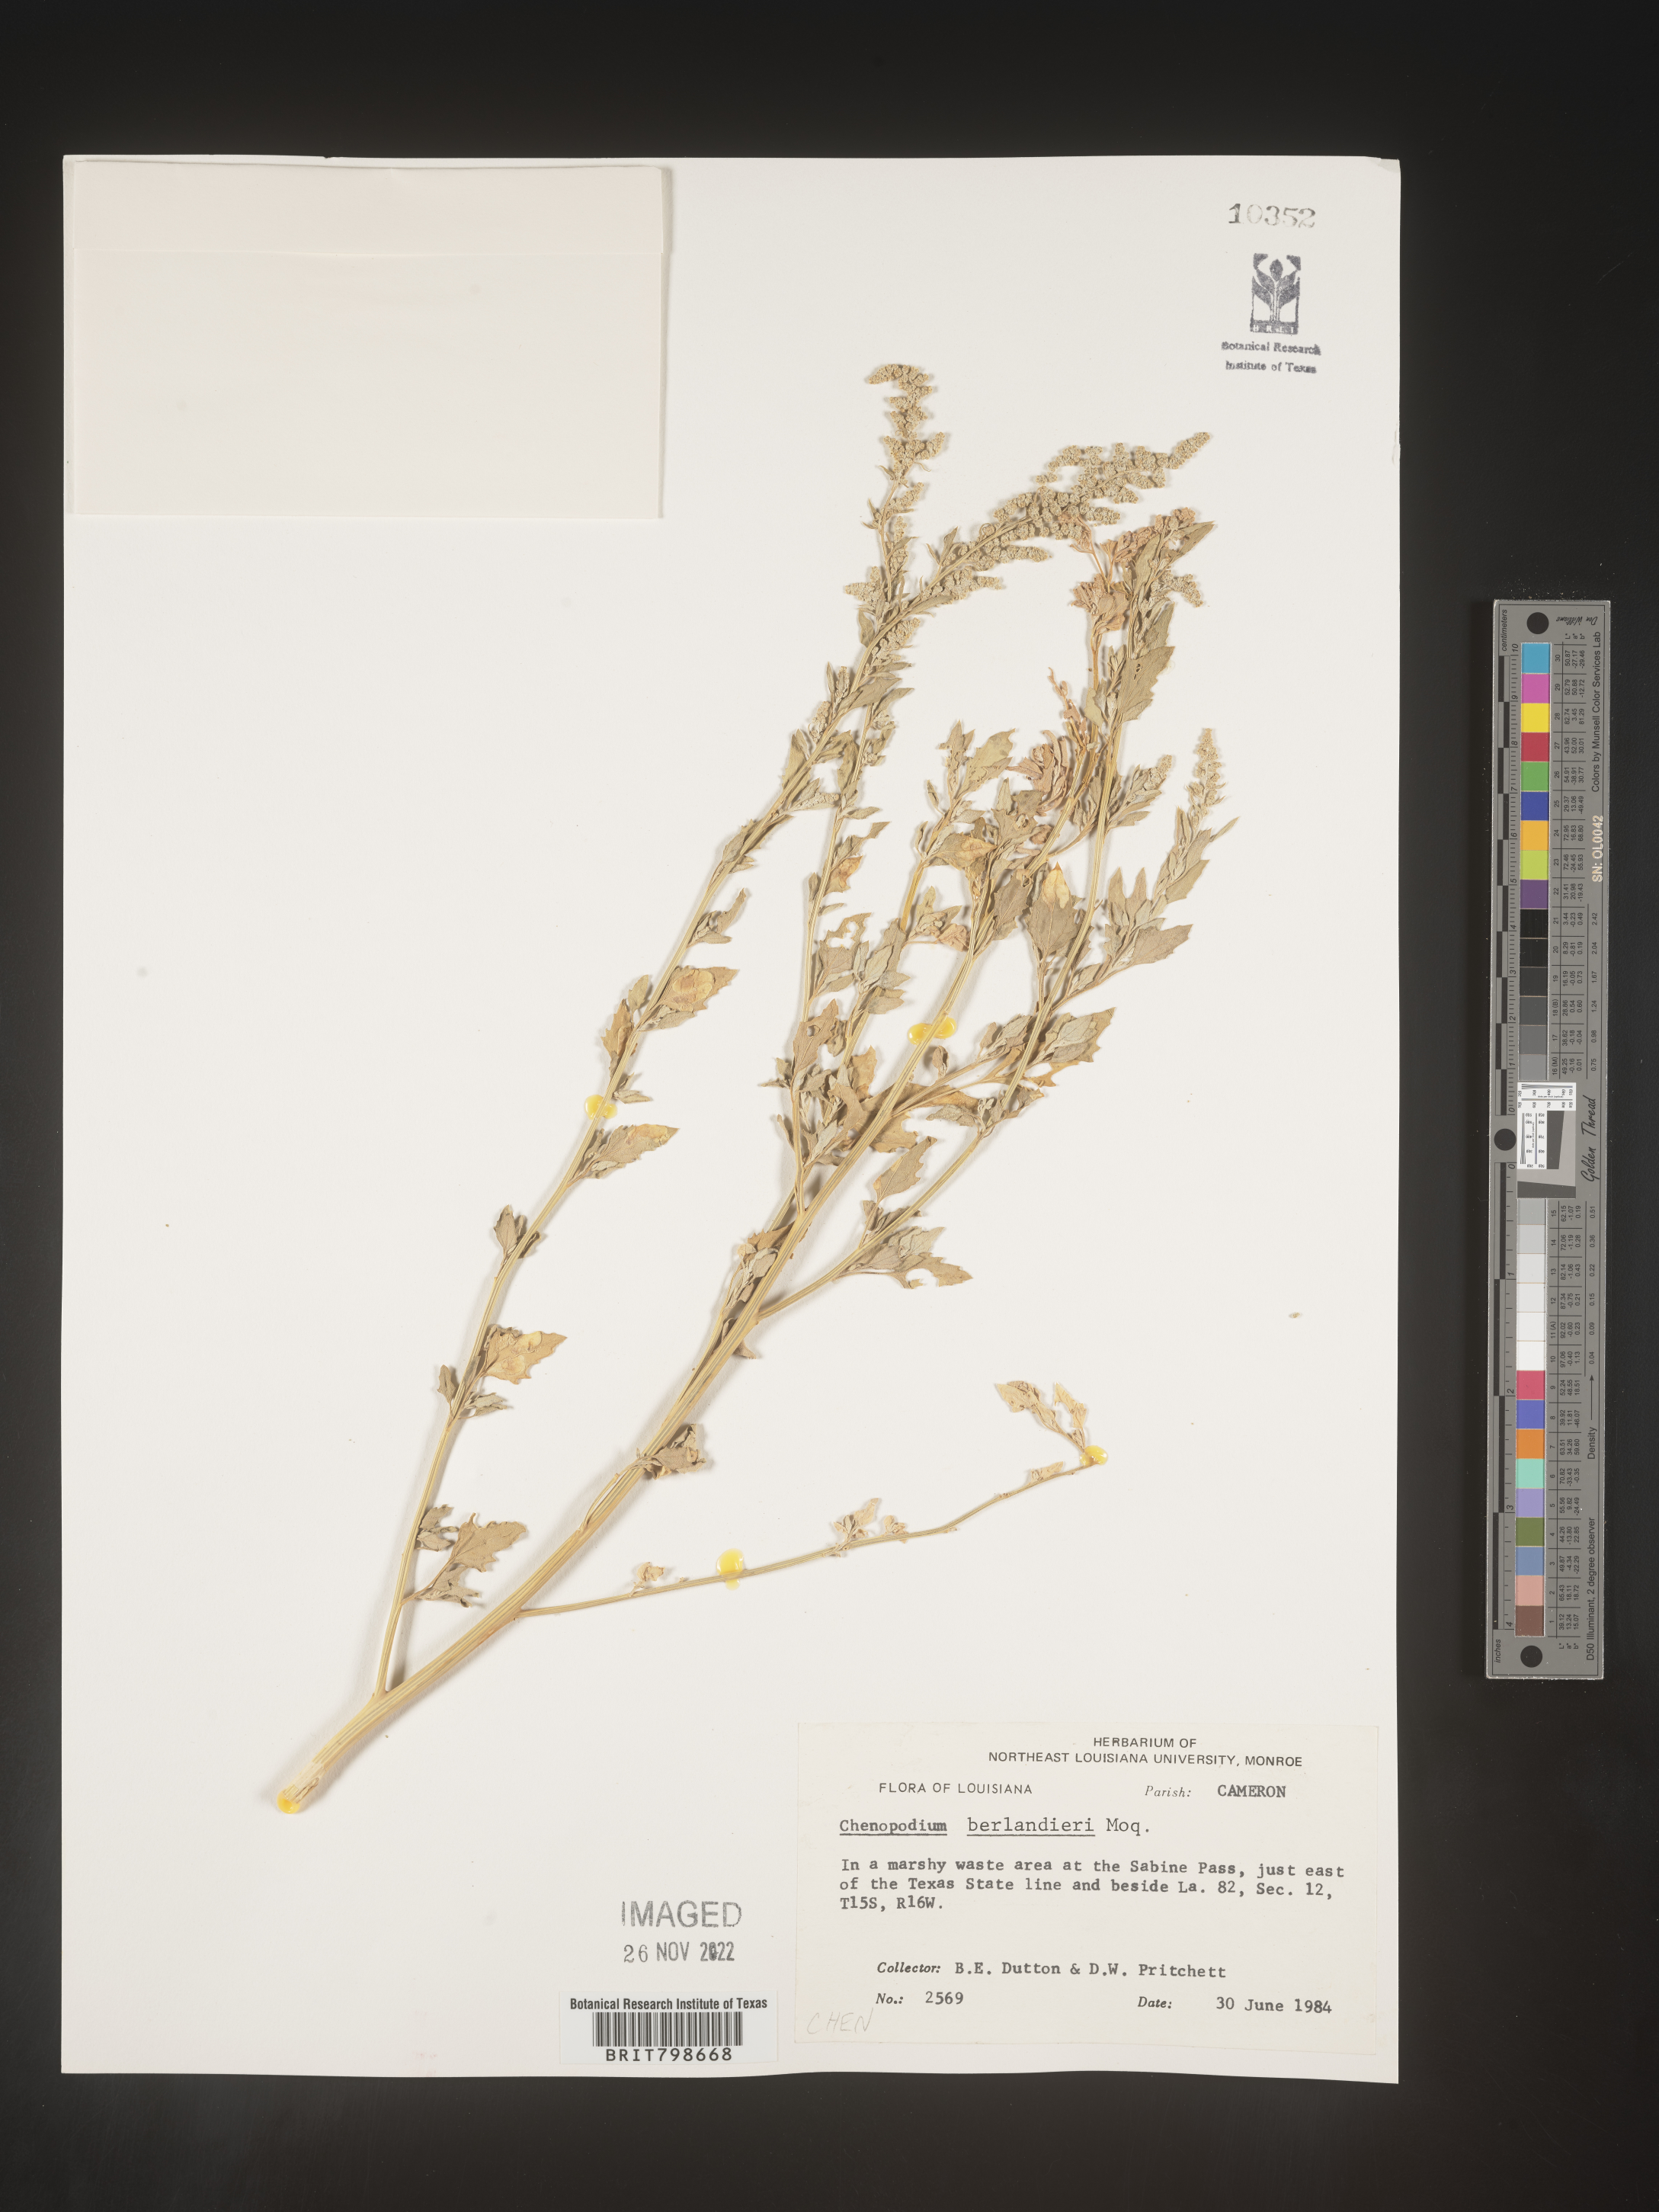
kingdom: Plantae
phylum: Tracheophyta
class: Magnoliopsida
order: Caryophyllales
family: Amaranthaceae
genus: Chenopodium
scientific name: Chenopodium berlandieri
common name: Pit-seed goosefoot
